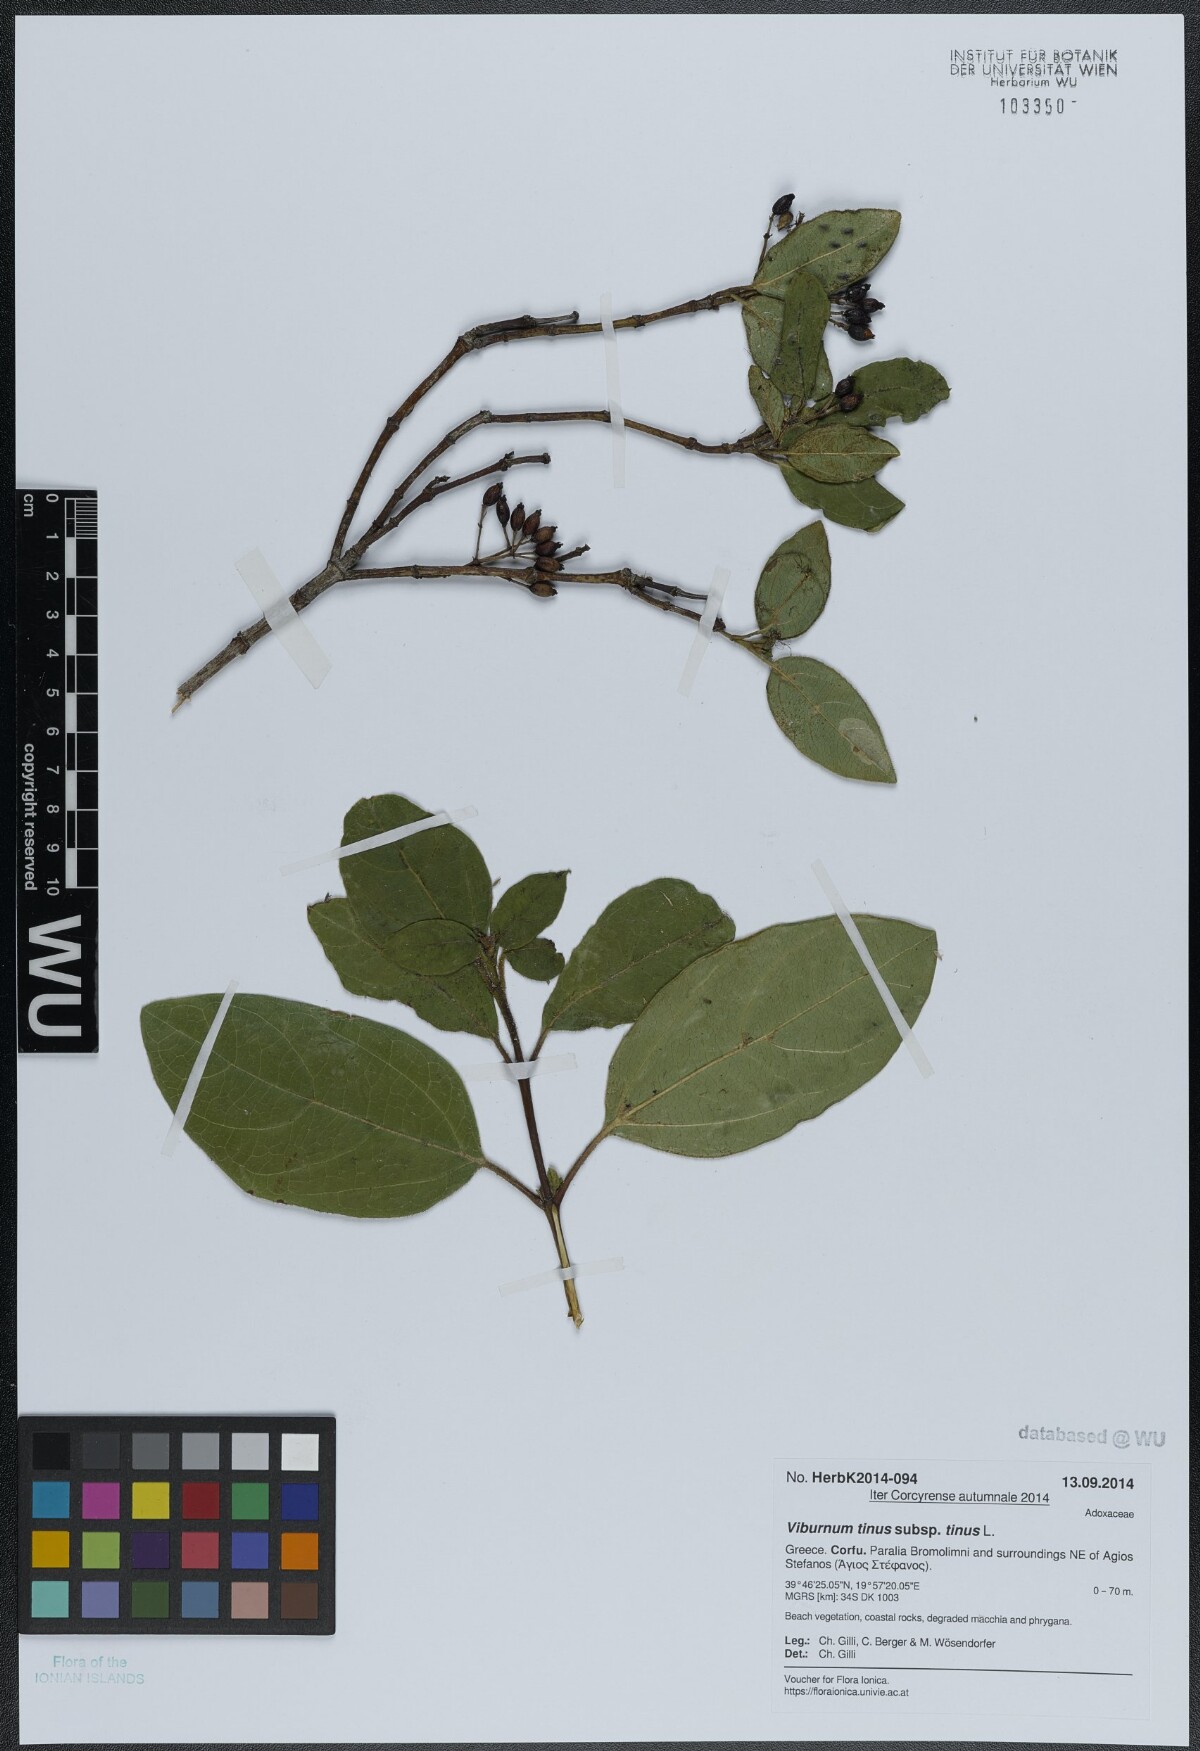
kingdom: Plantae
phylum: Tracheophyta
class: Magnoliopsida
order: Dipsacales
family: Viburnaceae
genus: Viburnum
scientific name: Viburnum tinus
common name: Laurustinus
